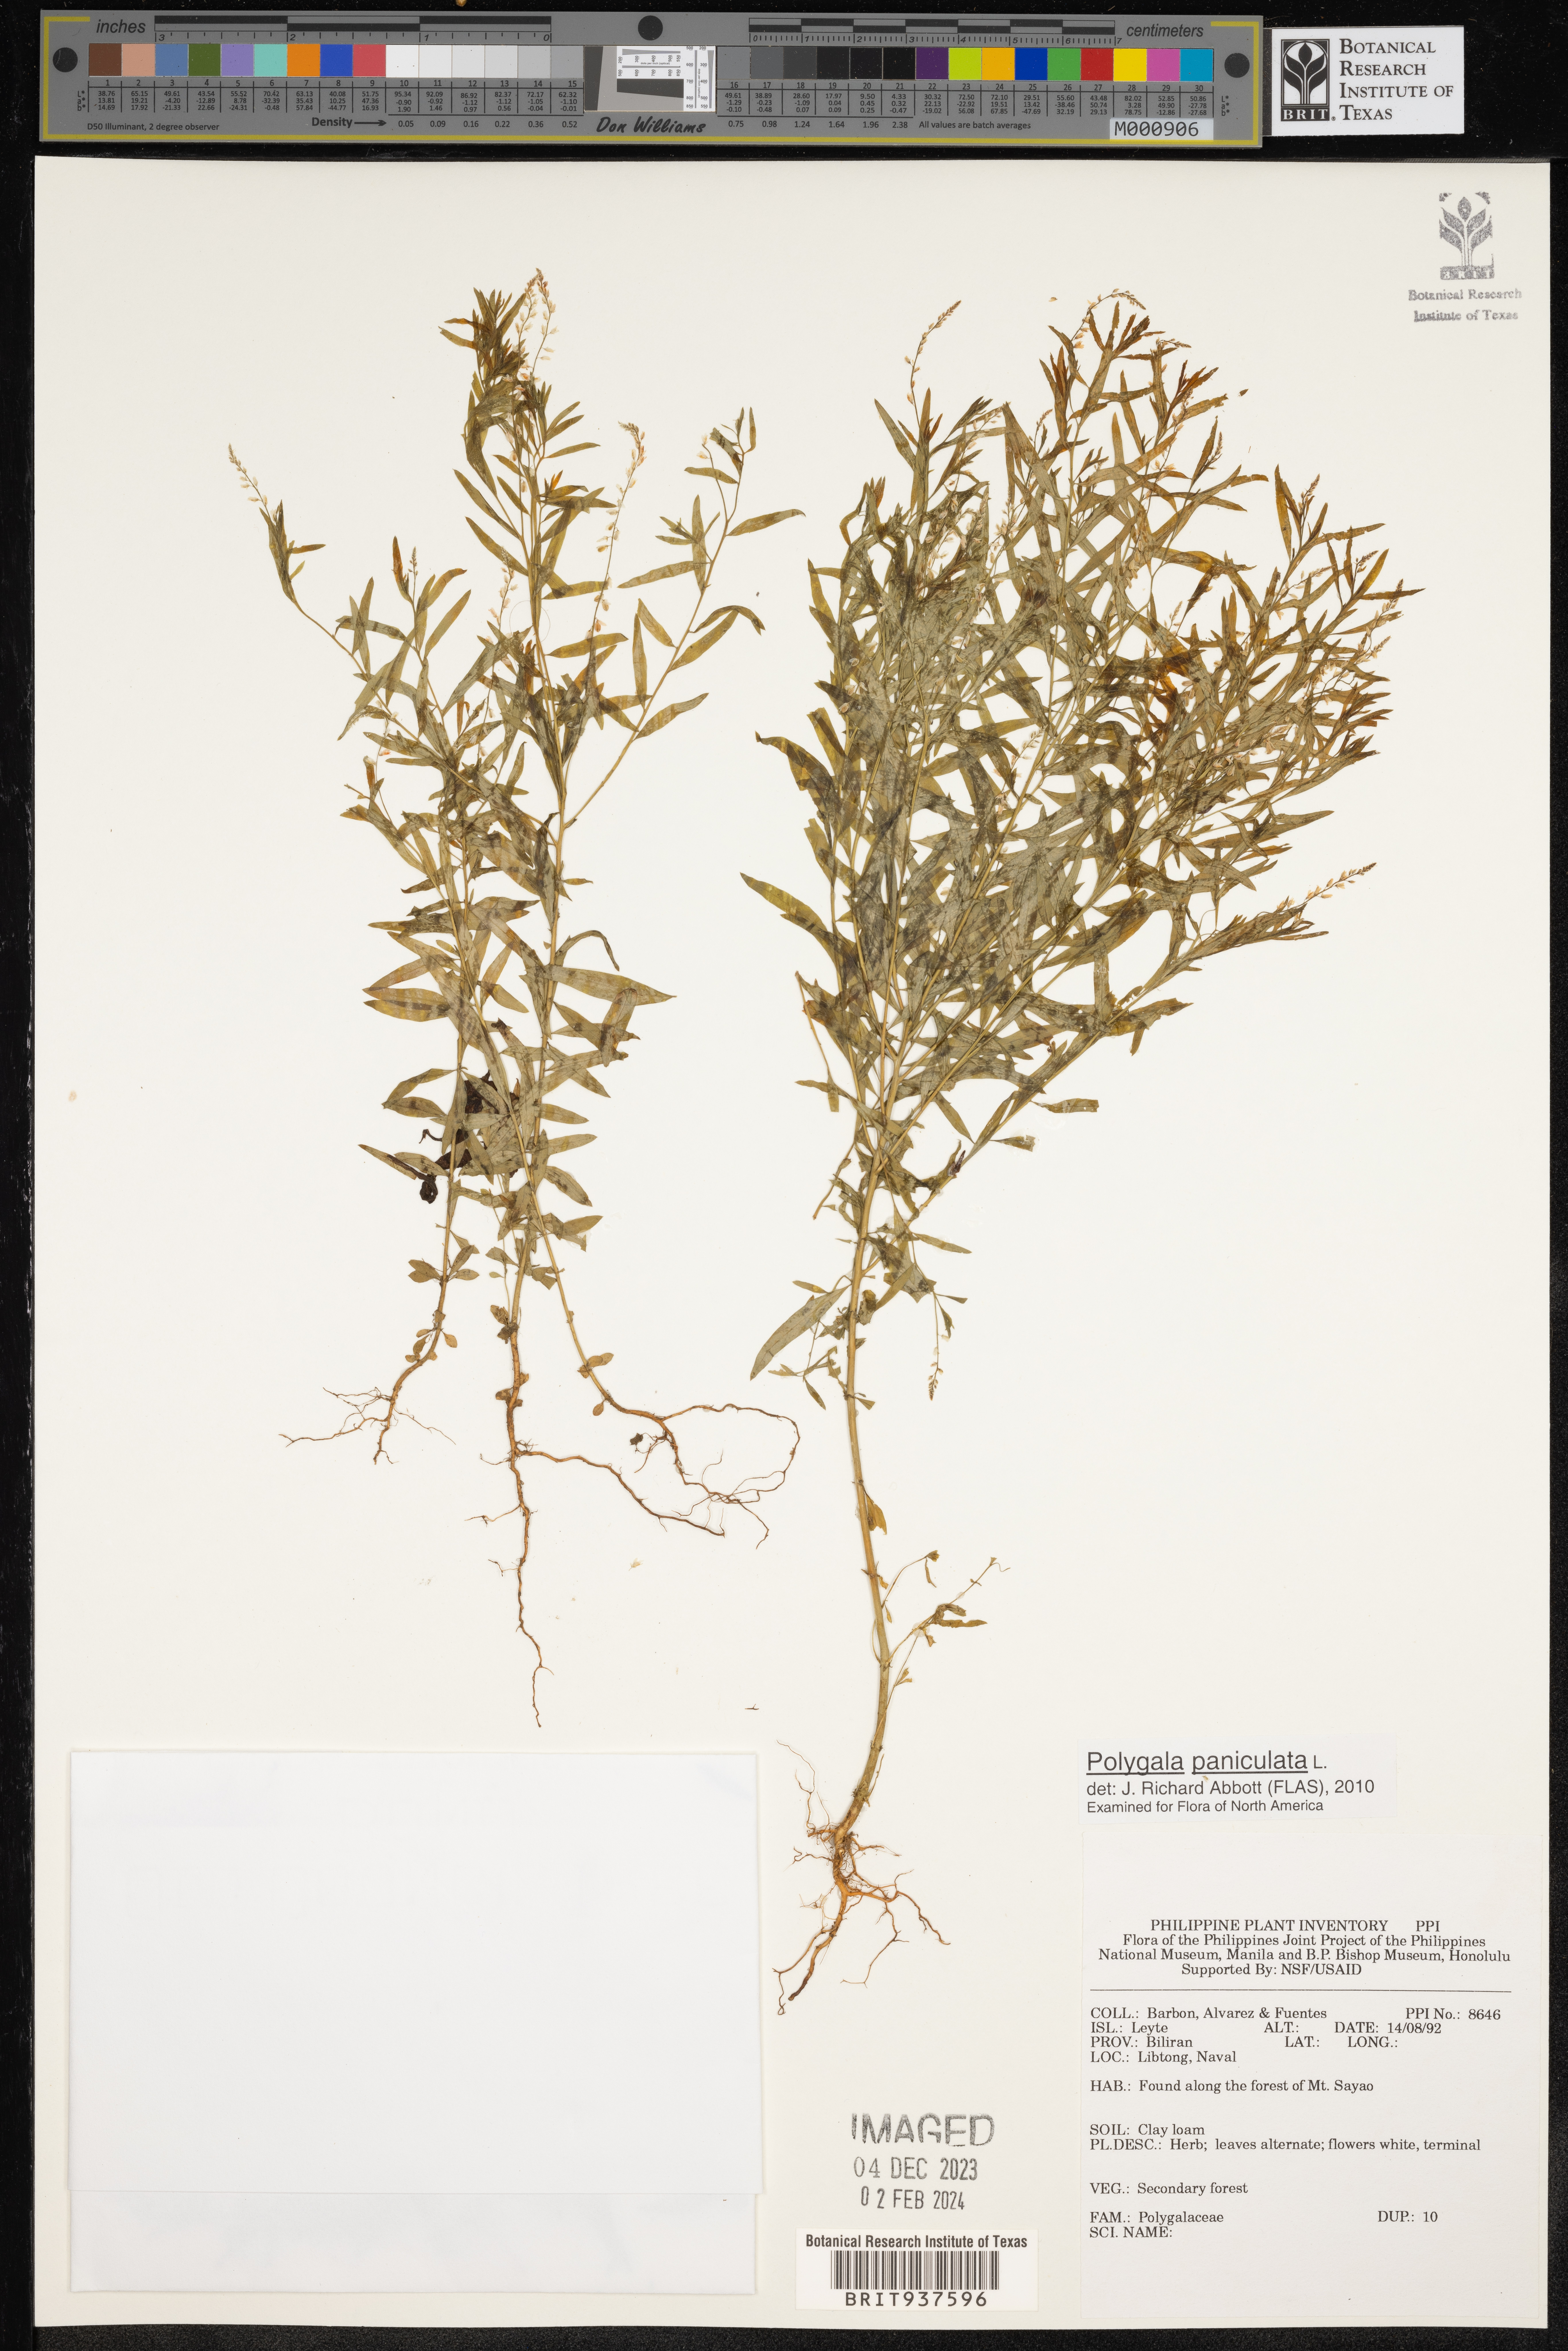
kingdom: Plantae
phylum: Tracheophyta
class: Magnoliopsida
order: Lamiales
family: Acanthaceae
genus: Adhatoda
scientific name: Adhatoda
